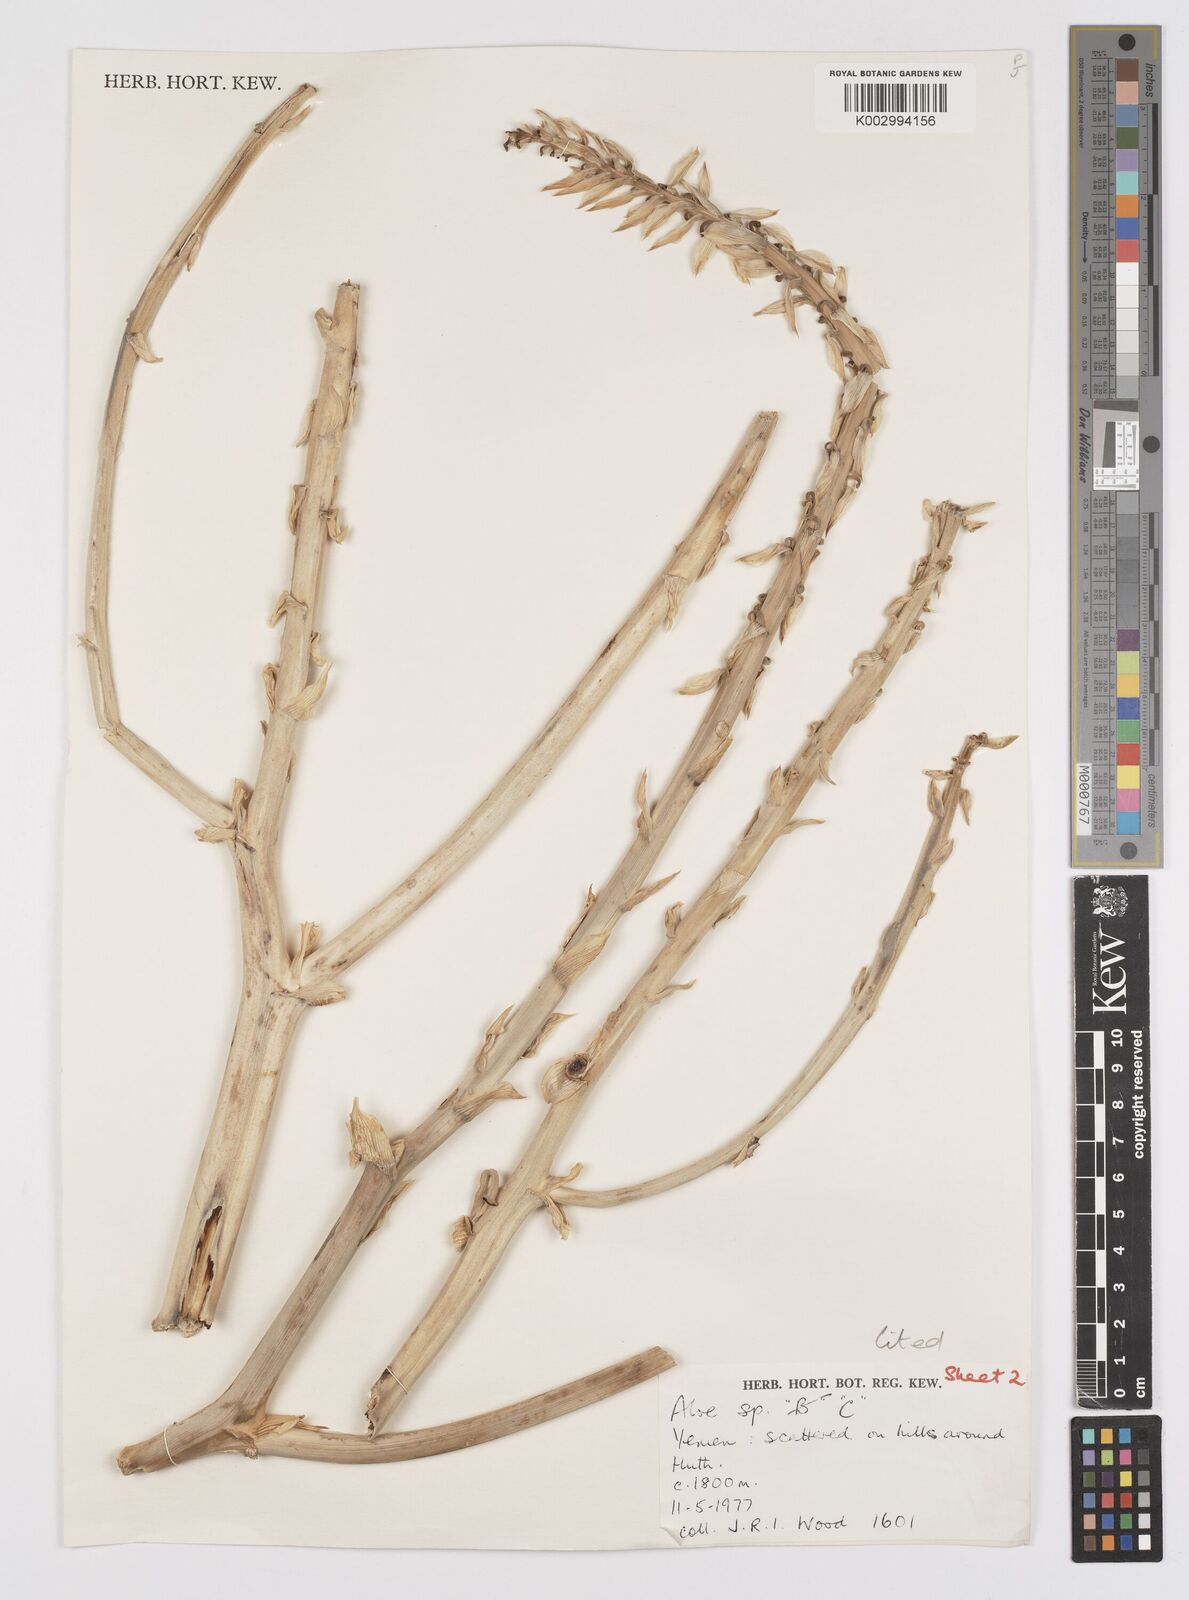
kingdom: Plantae
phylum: Tracheophyta
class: Liliopsida
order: Asparagales
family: Asphodelaceae
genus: Aloe
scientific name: Aloe
